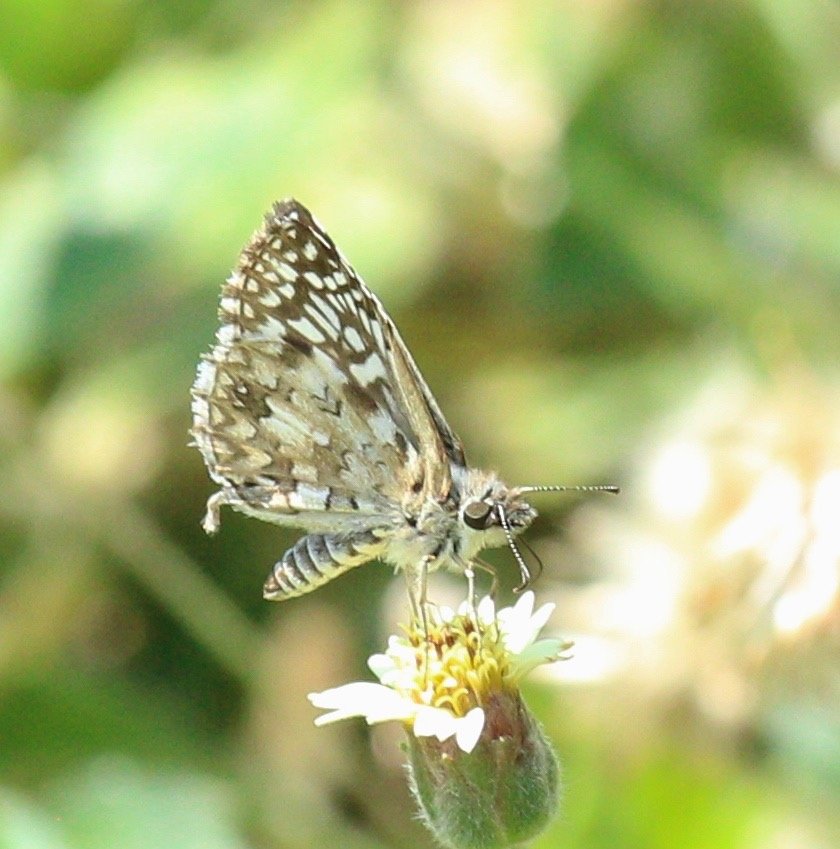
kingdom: Animalia
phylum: Arthropoda
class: Insecta
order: Lepidoptera
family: Hesperiidae
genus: Pyrgus
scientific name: Pyrgus oileus
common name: Tropical Checkered-Skipper
